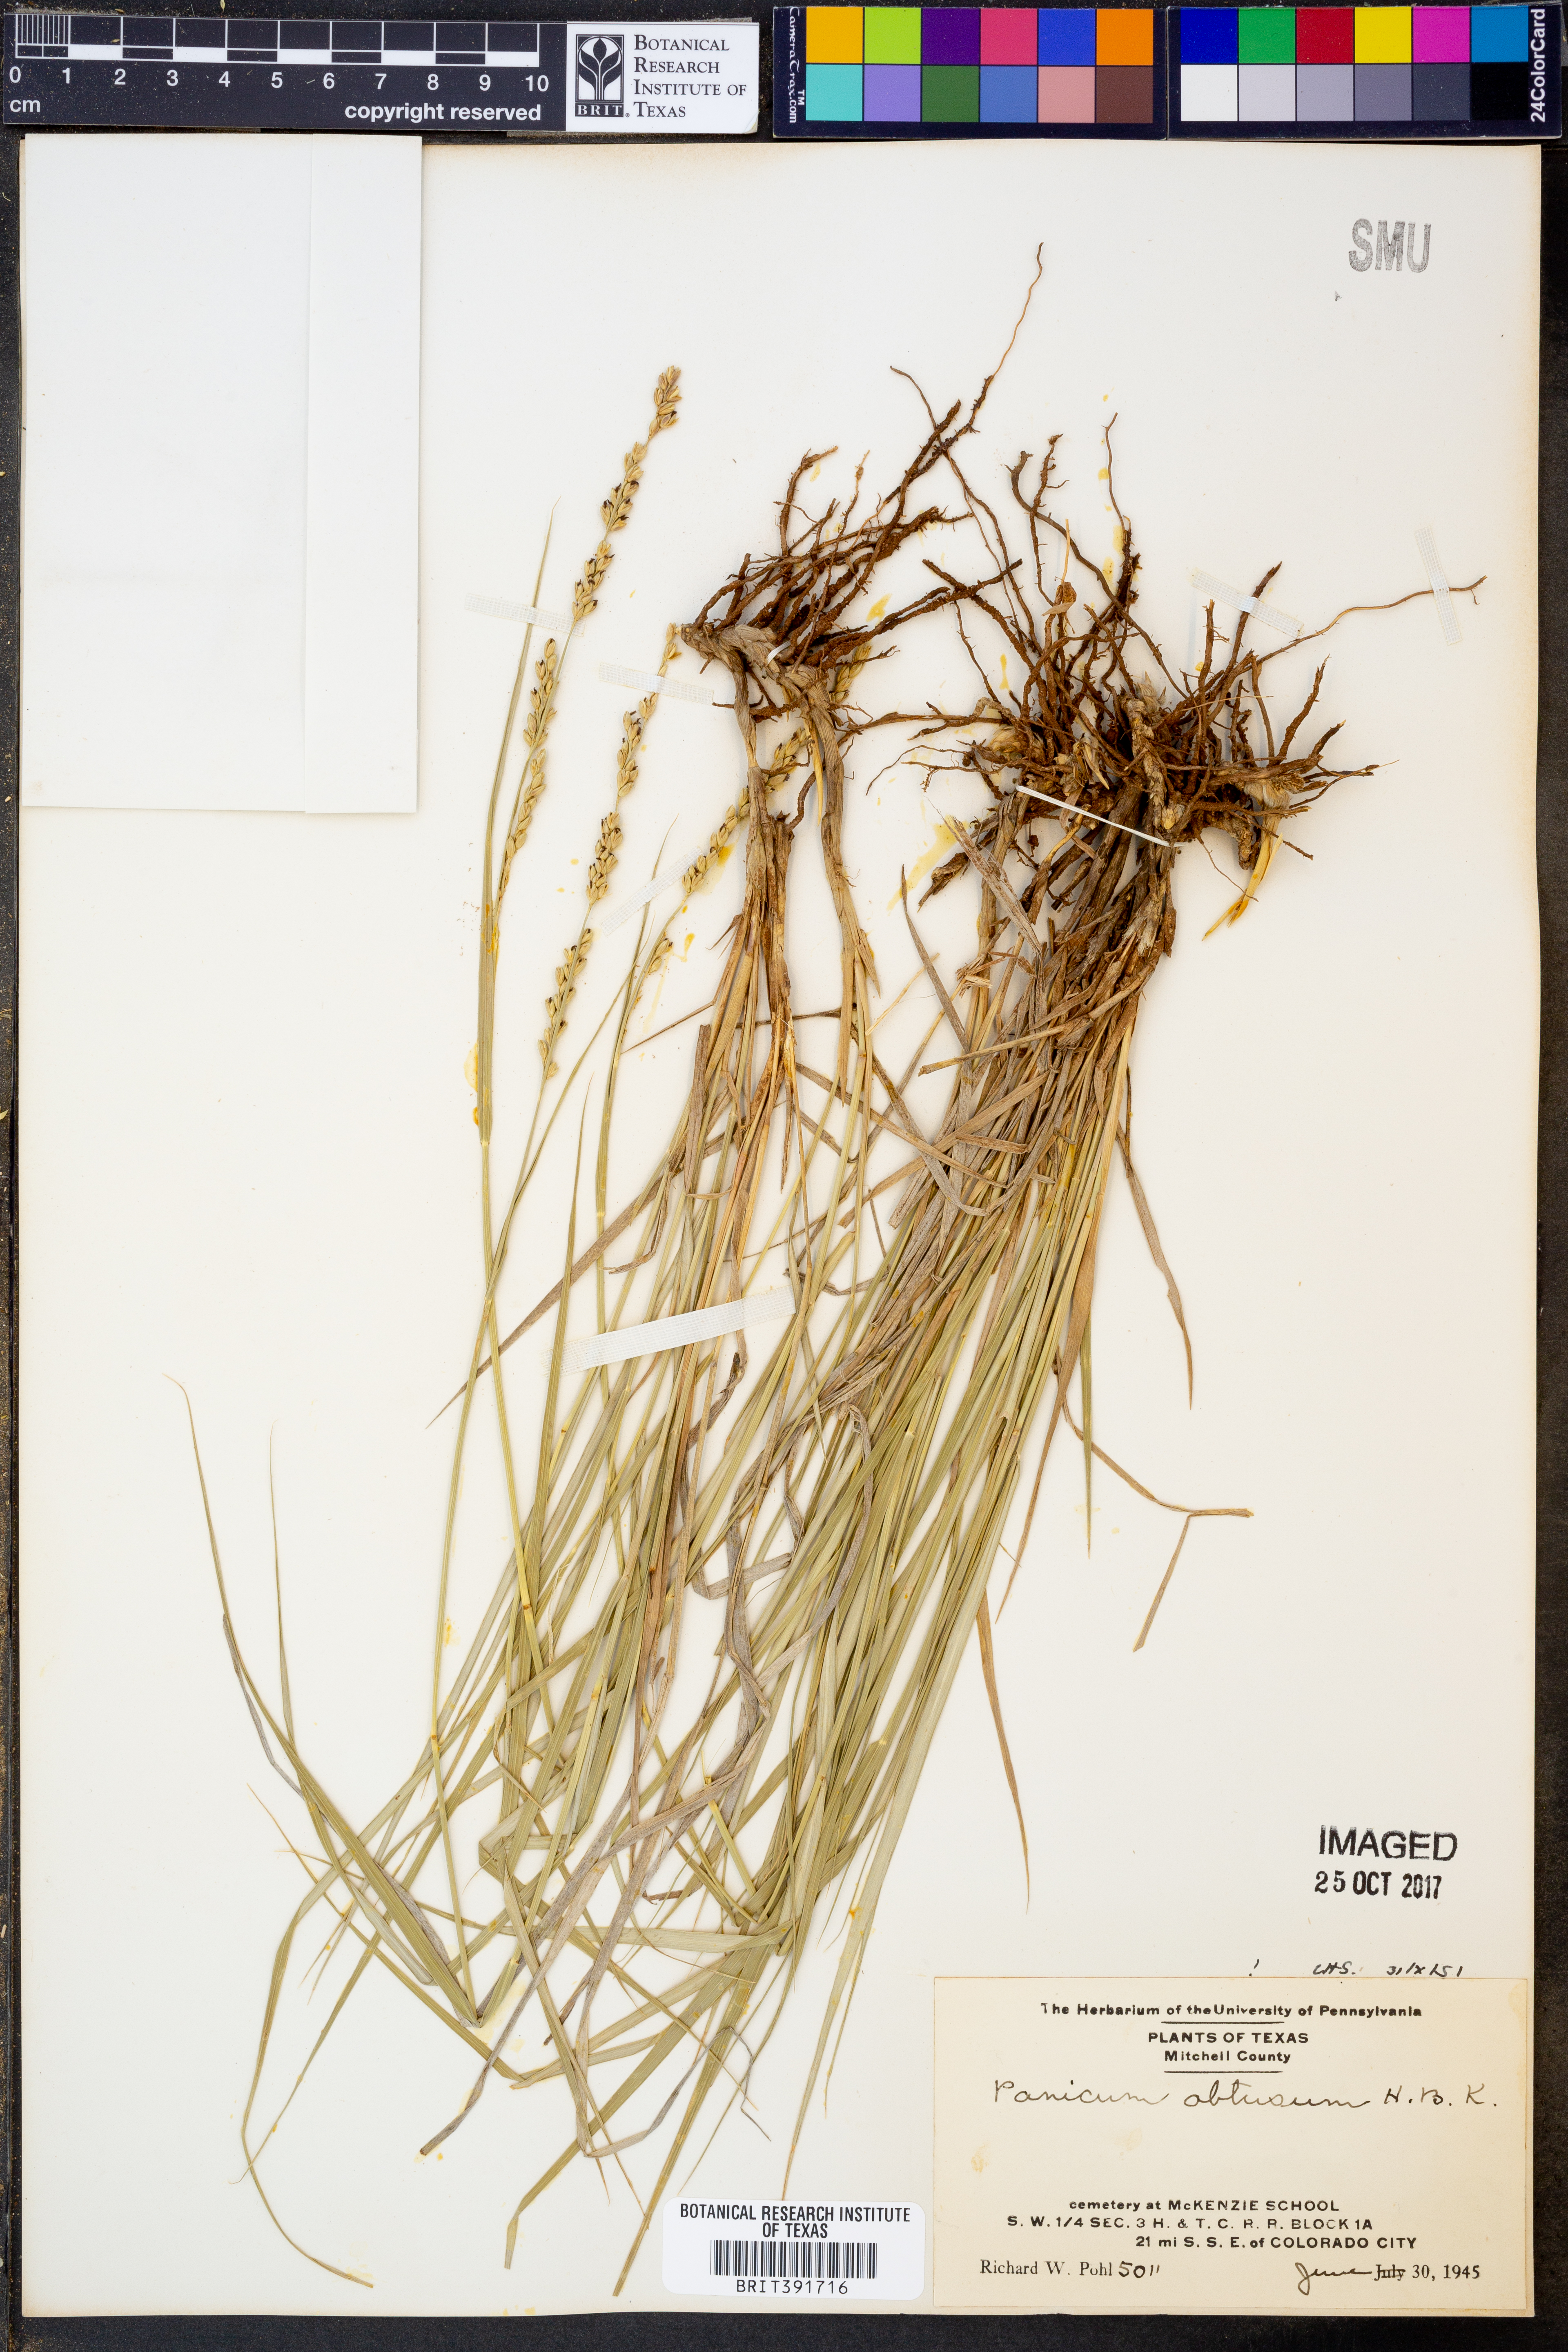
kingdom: Plantae
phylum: Tracheophyta
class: Liliopsida
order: Poales
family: Poaceae
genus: Hopia
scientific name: Hopia obtusa
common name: Vine-mesquite
